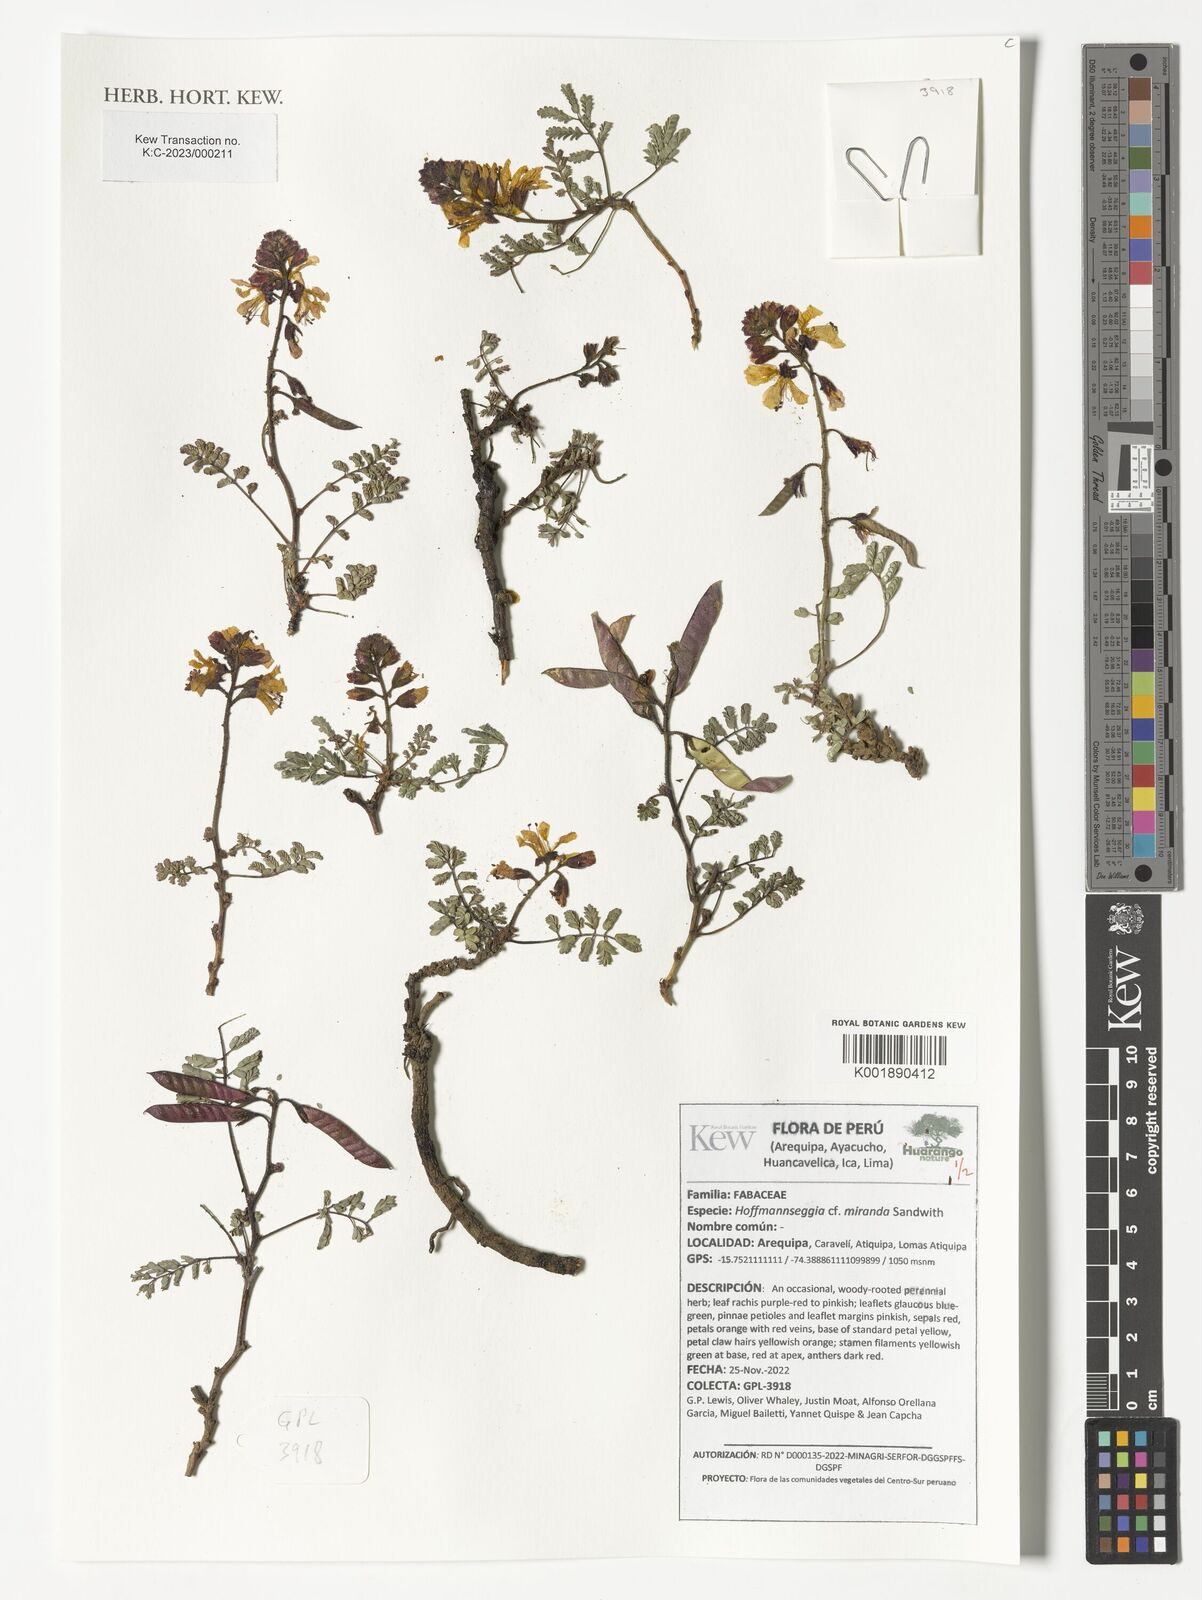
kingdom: Plantae
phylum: Tracheophyta
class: Magnoliopsida
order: Fabales
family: Fabaceae
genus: Hoffmannseggia
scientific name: Hoffmannseggia miranda
